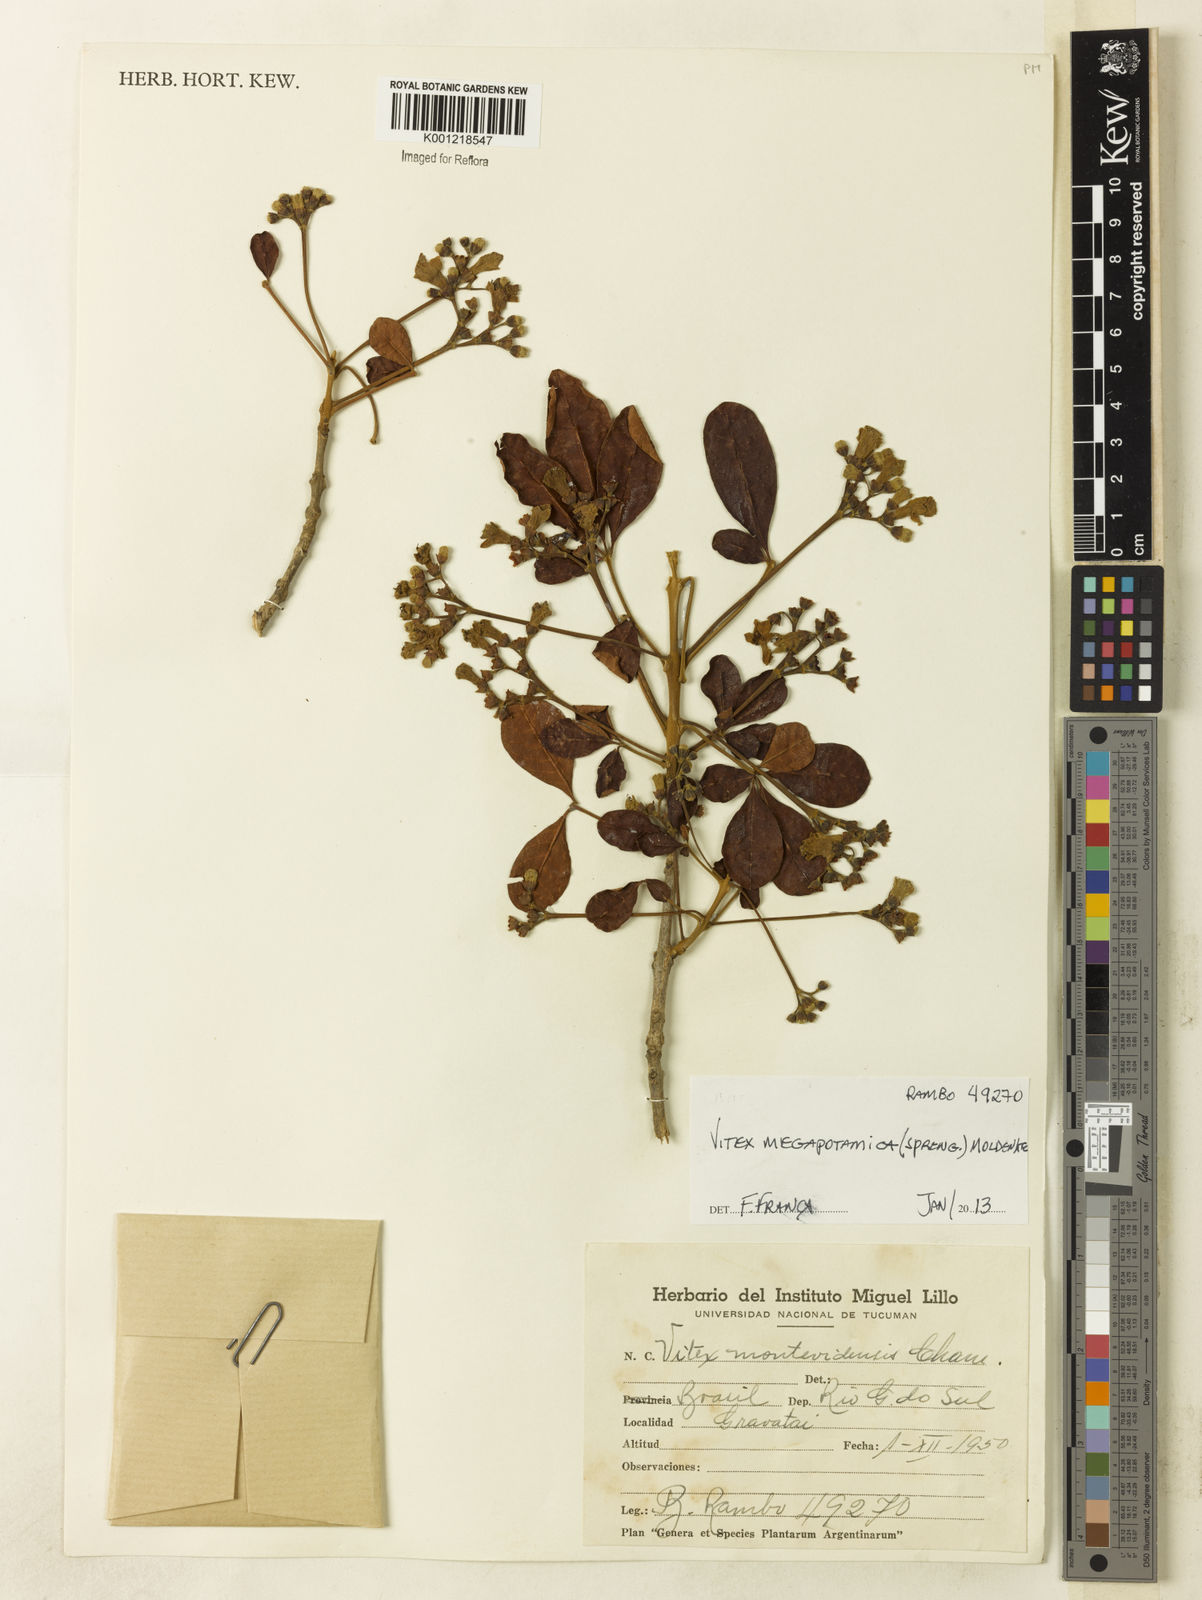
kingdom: Plantae
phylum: Tracheophyta
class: Magnoliopsida
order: Lamiales
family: Lamiaceae
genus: Vitex
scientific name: Vitex megapotamica
